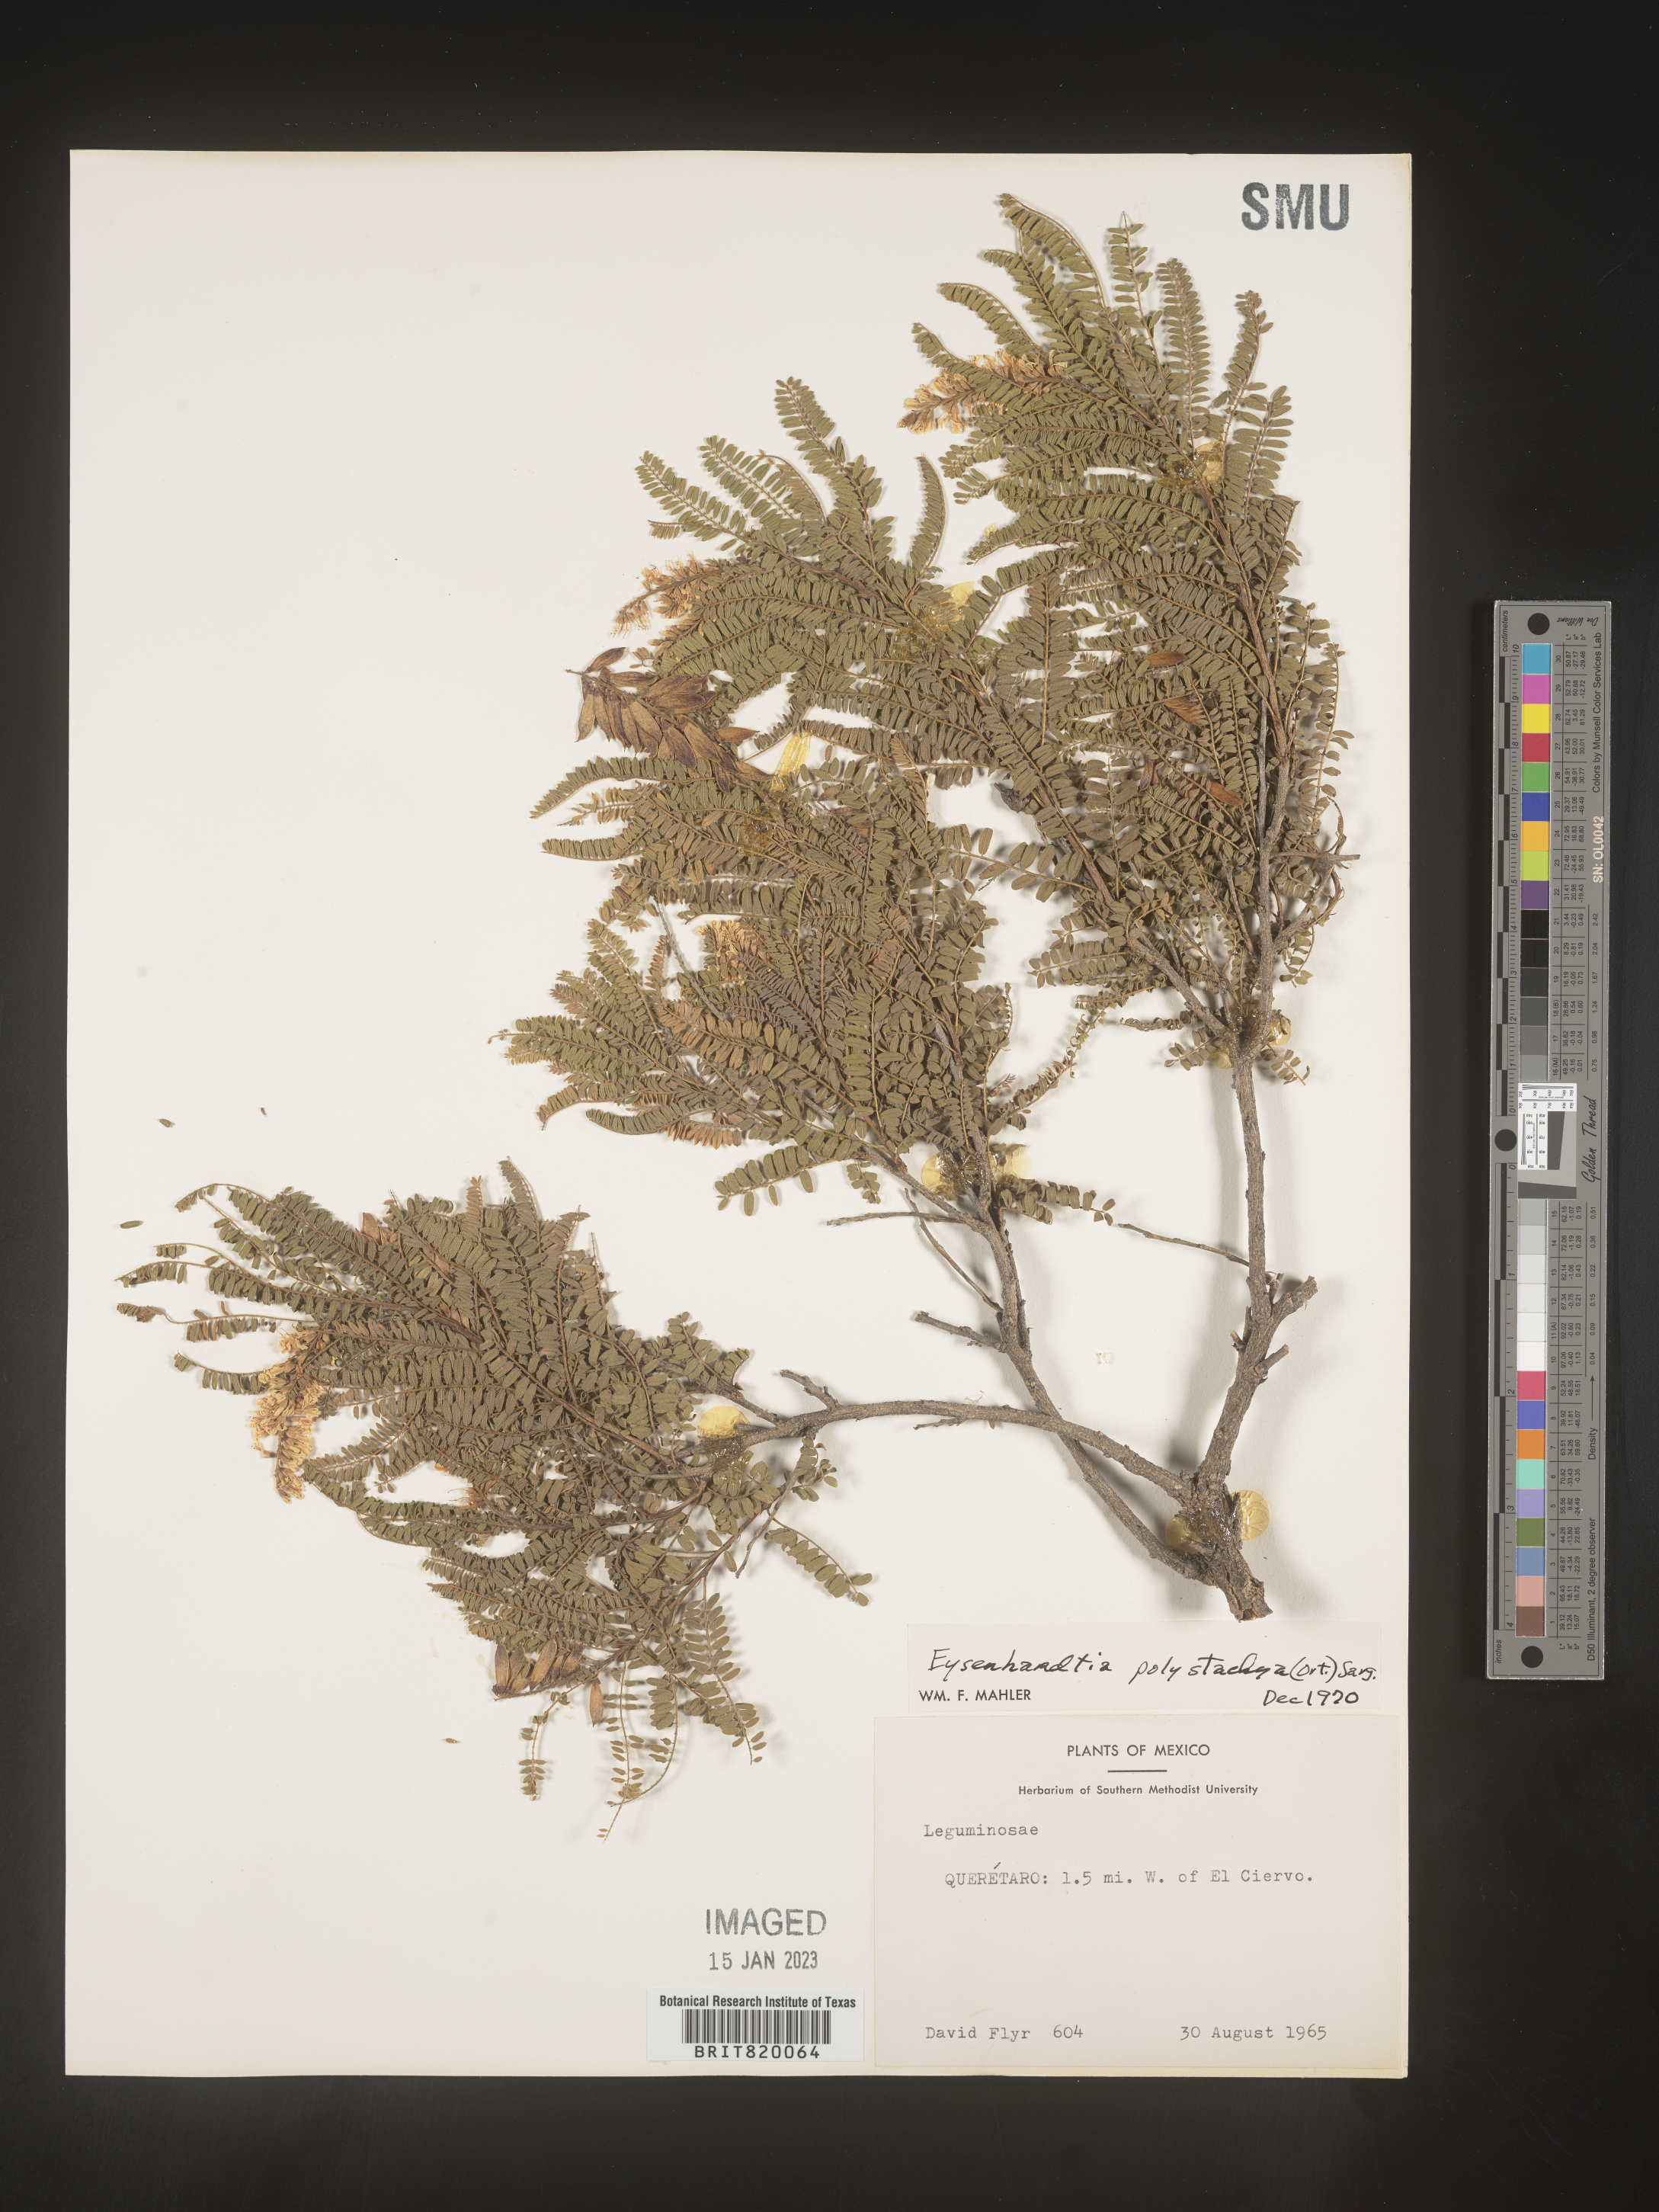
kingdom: Plantae
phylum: Tracheophyta
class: Magnoliopsida
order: Fabales
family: Fabaceae
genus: Eysenhardtia
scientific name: Eysenhardtia
